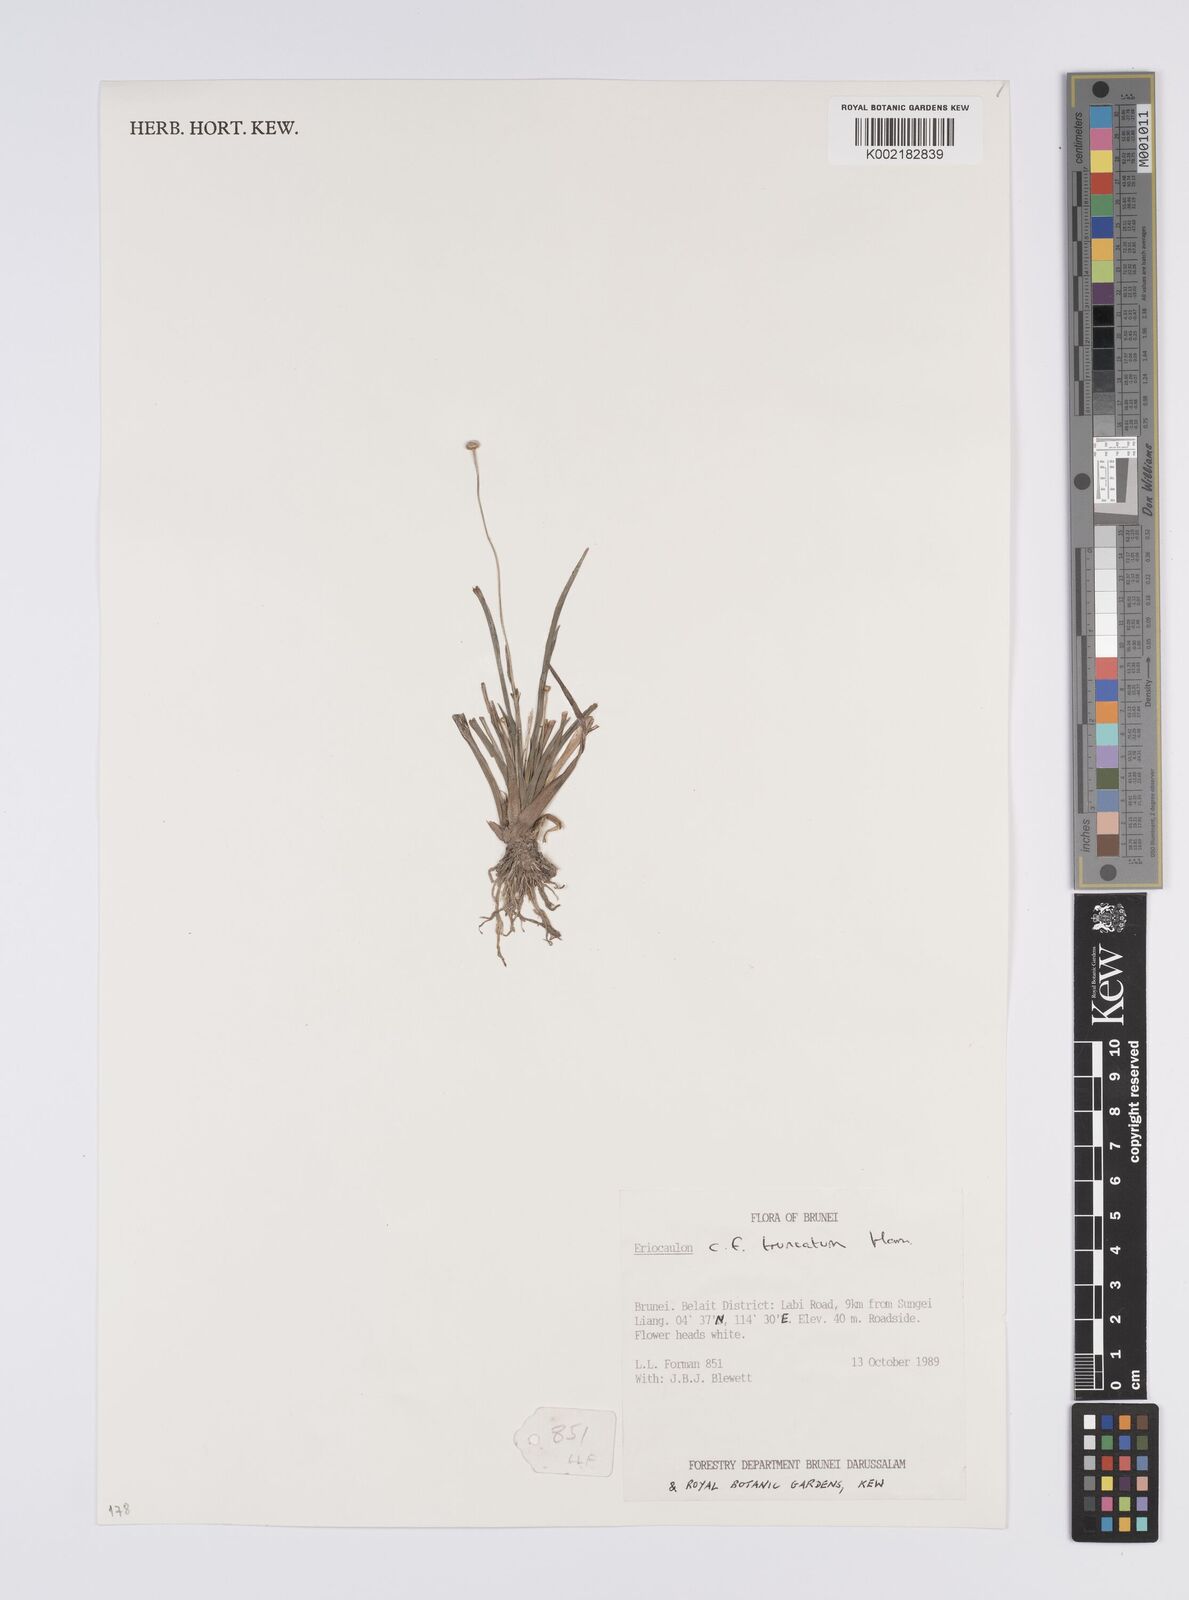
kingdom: Plantae
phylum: Tracheophyta
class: Liliopsida
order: Poales
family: Eriocaulaceae
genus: Eriocaulon
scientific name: Eriocaulon truncatum
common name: Short pipe-wort
